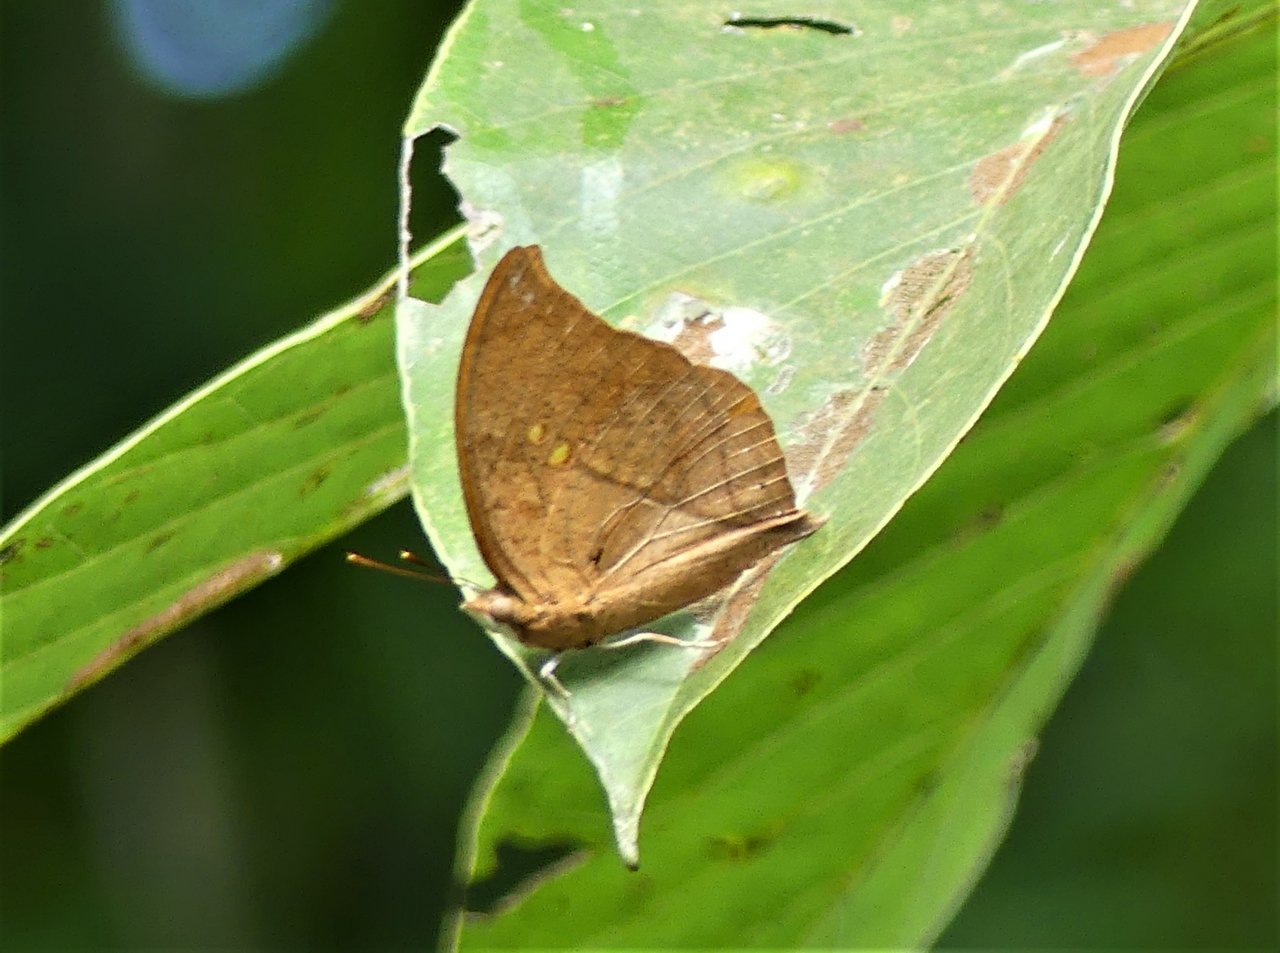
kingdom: Animalia
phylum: Arthropoda
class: Insecta
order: Lepidoptera
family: Nymphalidae
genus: Fountainea
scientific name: Fountainea
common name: Angled Leafwing
